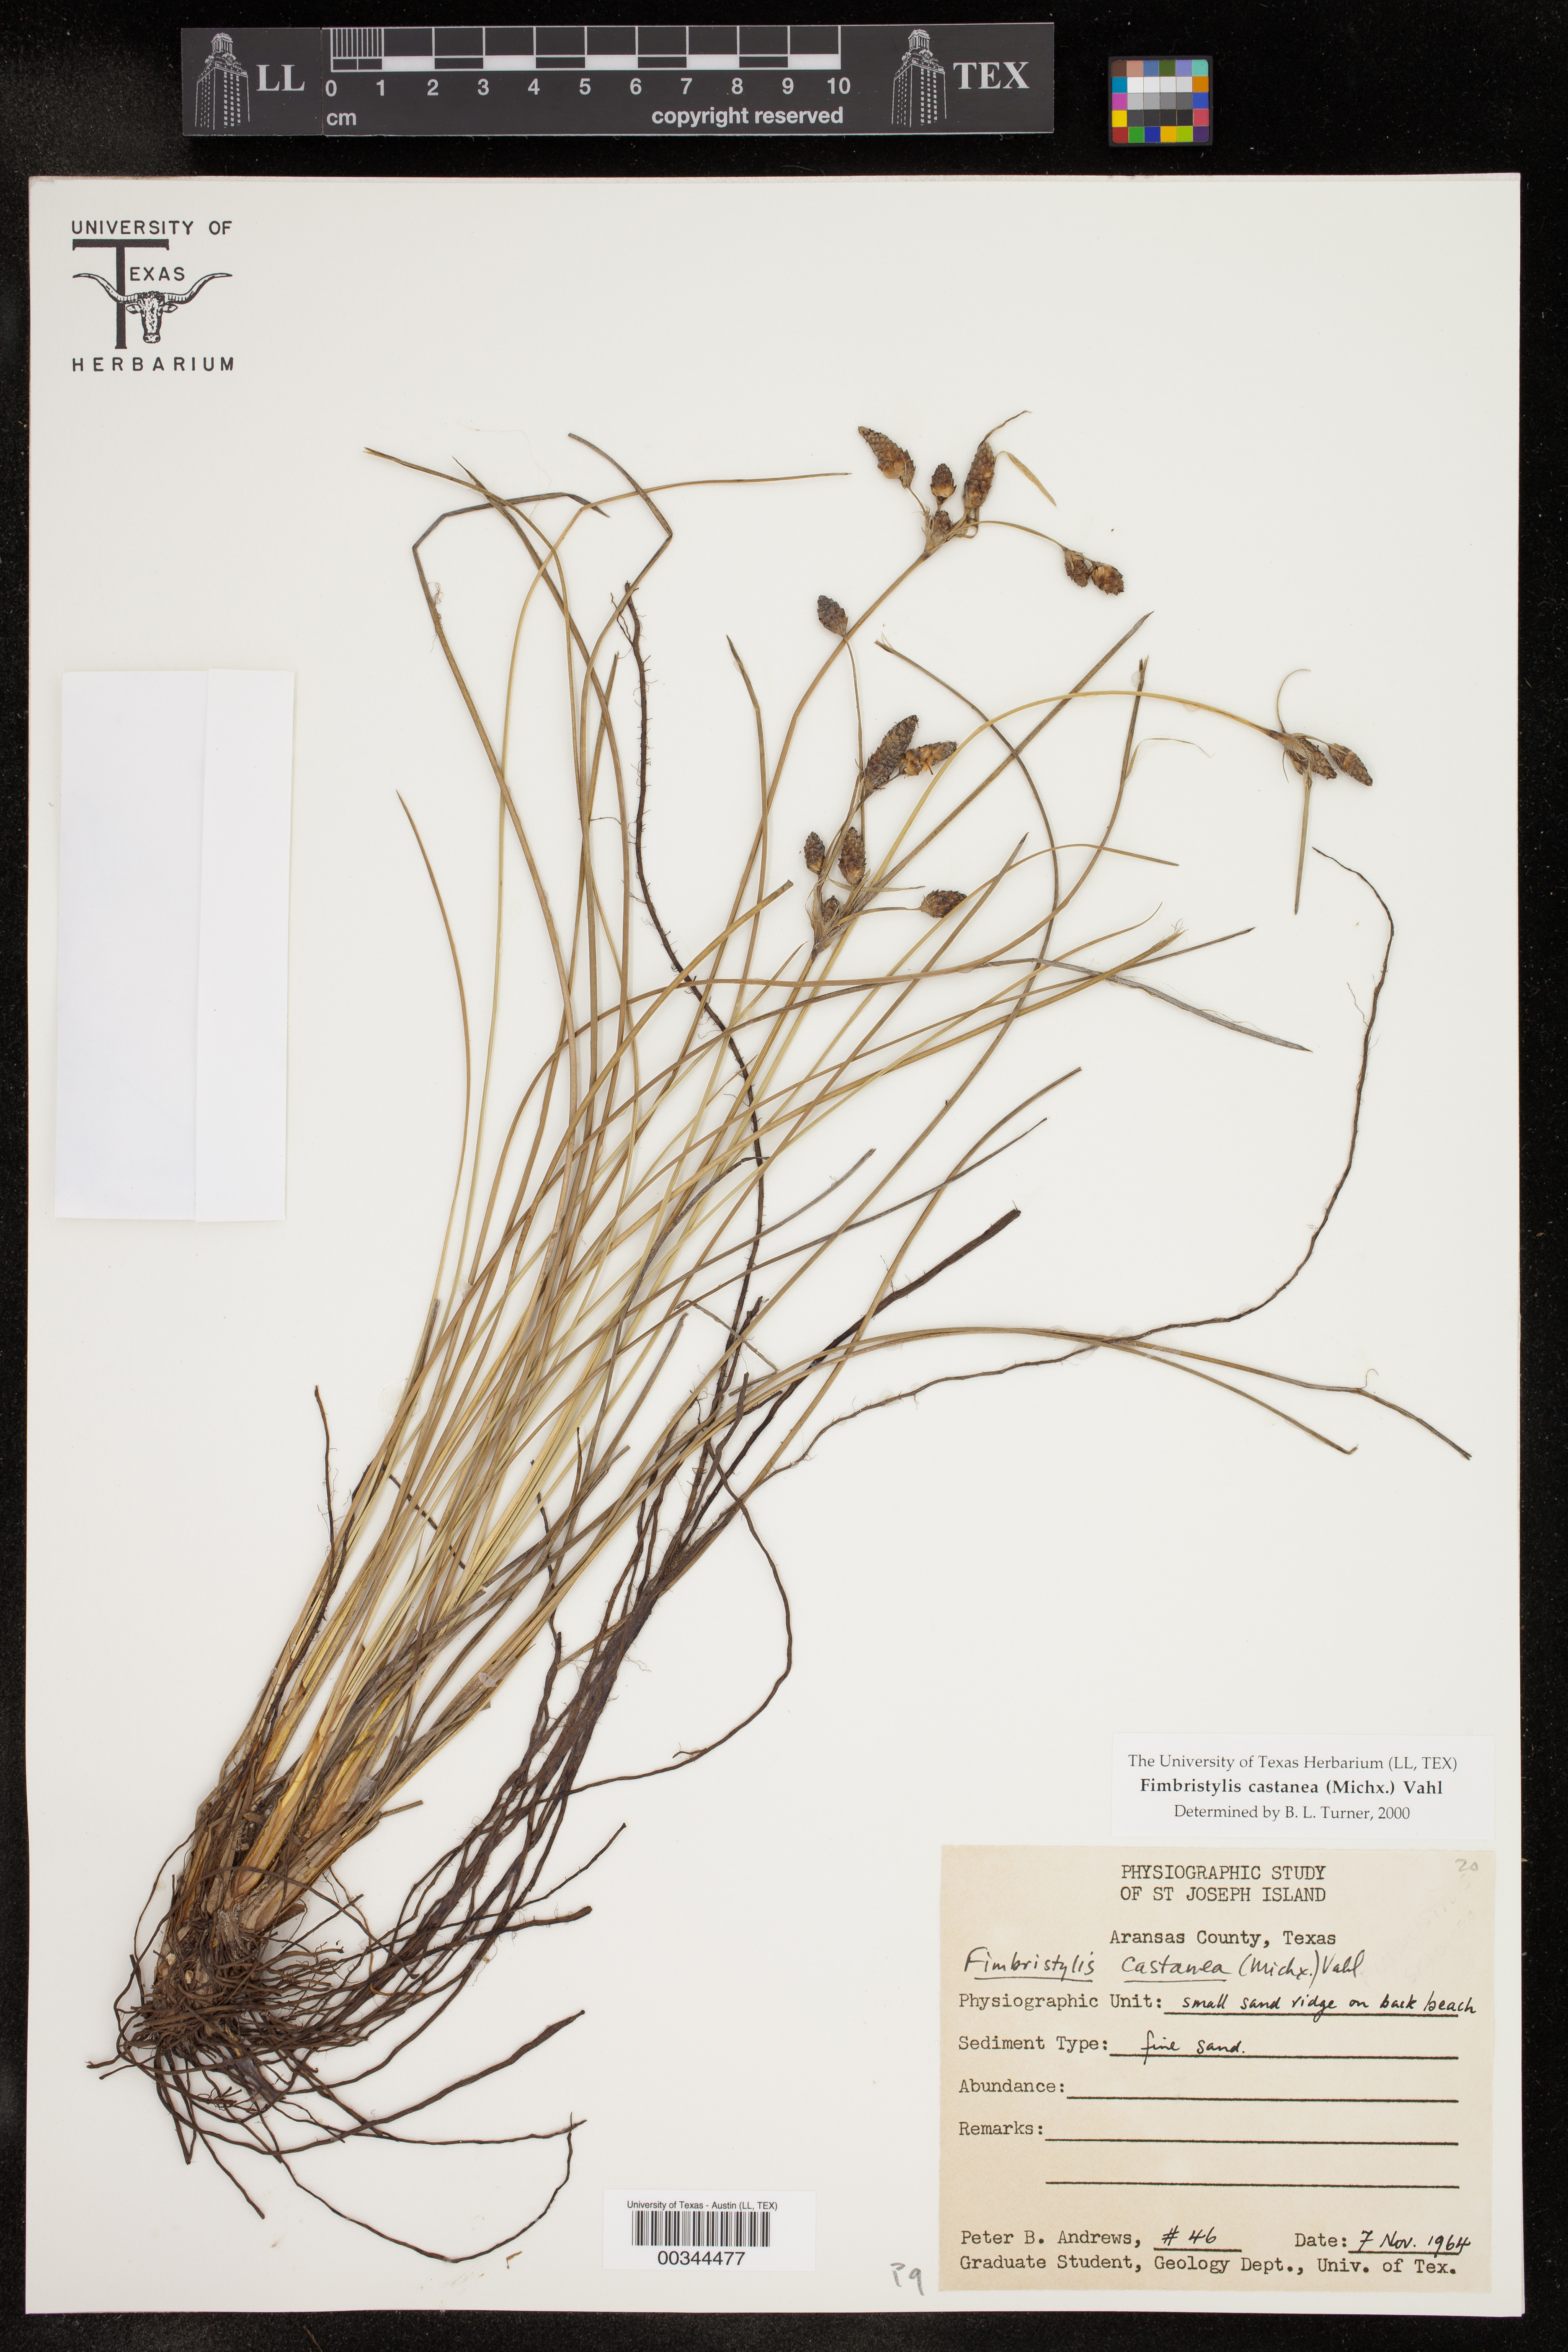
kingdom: Plantae
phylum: Tracheophyta
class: Liliopsida
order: Poales
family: Cyperaceae
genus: Fimbristylis
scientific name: Fimbristylis spadicea
